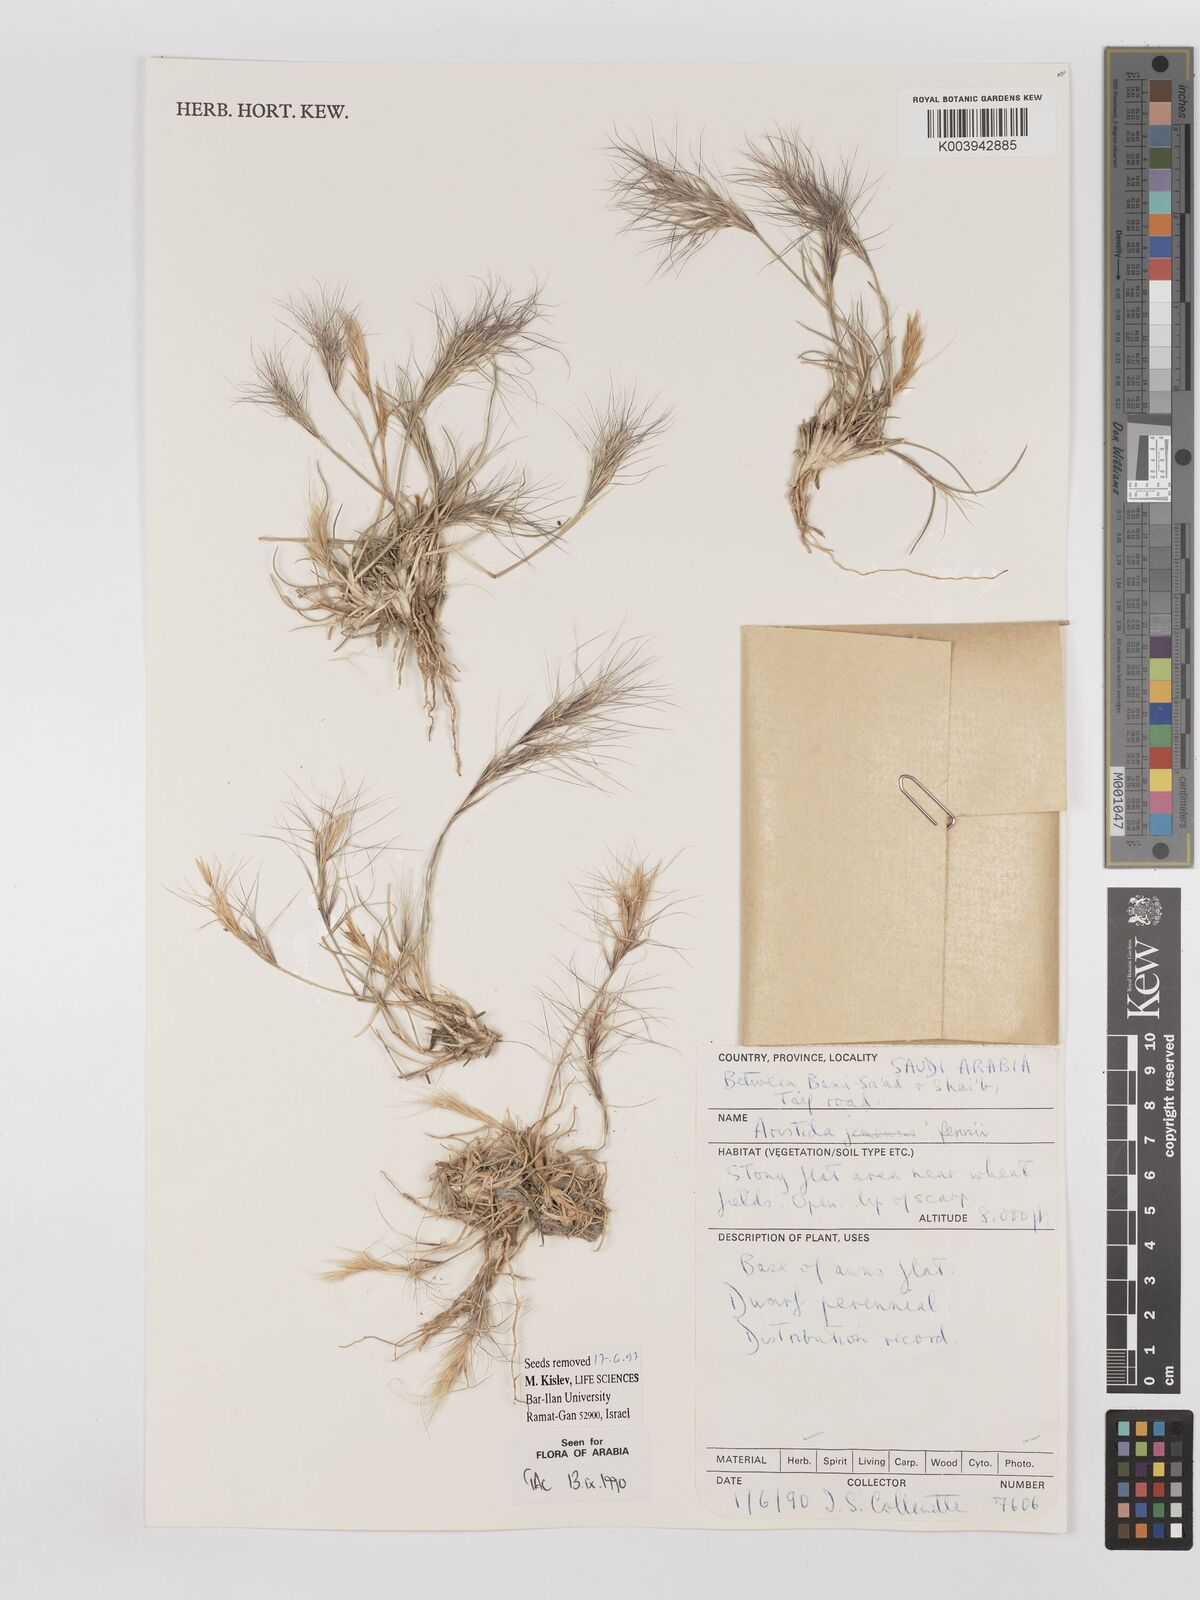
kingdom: Plantae
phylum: Tracheophyta
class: Liliopsida
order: Poales
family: Poaceae
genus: Aristida
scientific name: Aristida pennei
